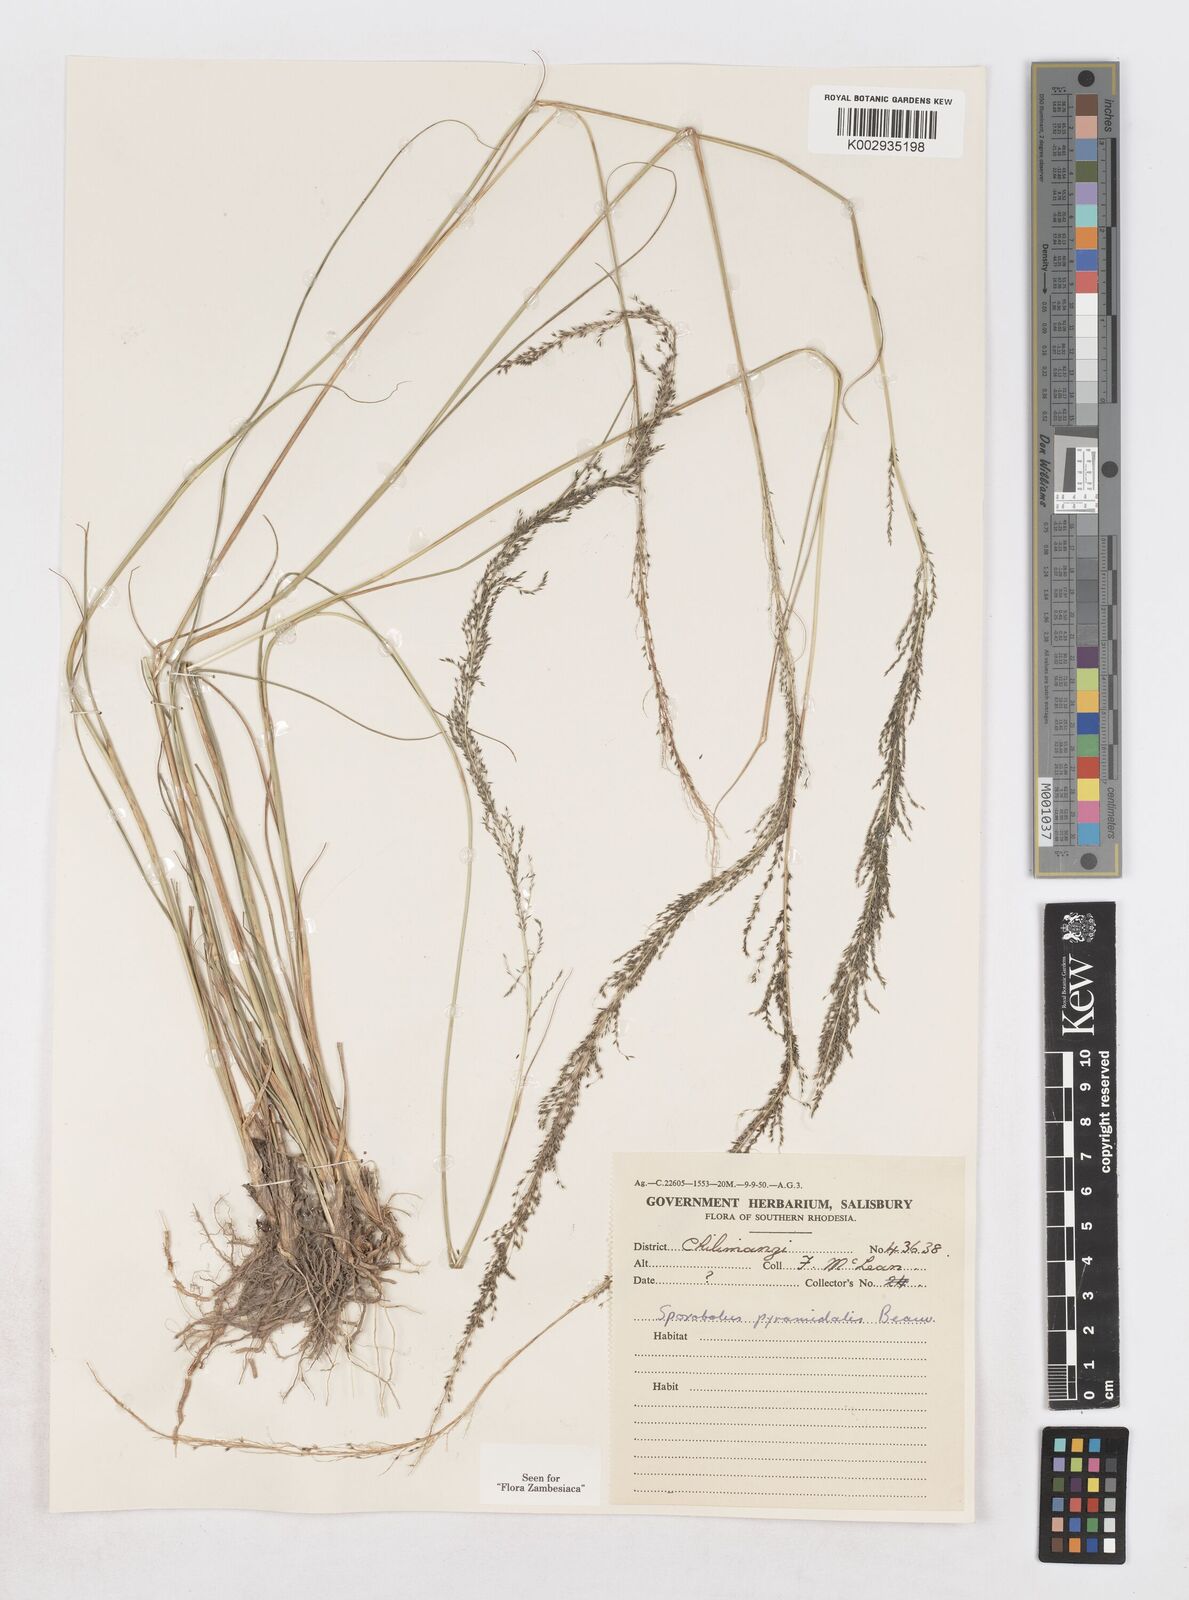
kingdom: Plantae
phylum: Tracheophyta
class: Liliopsida
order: Poales
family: Poaceae
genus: Sporobolus
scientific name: Sporobolus pyramidalis
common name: West indian dropseed
